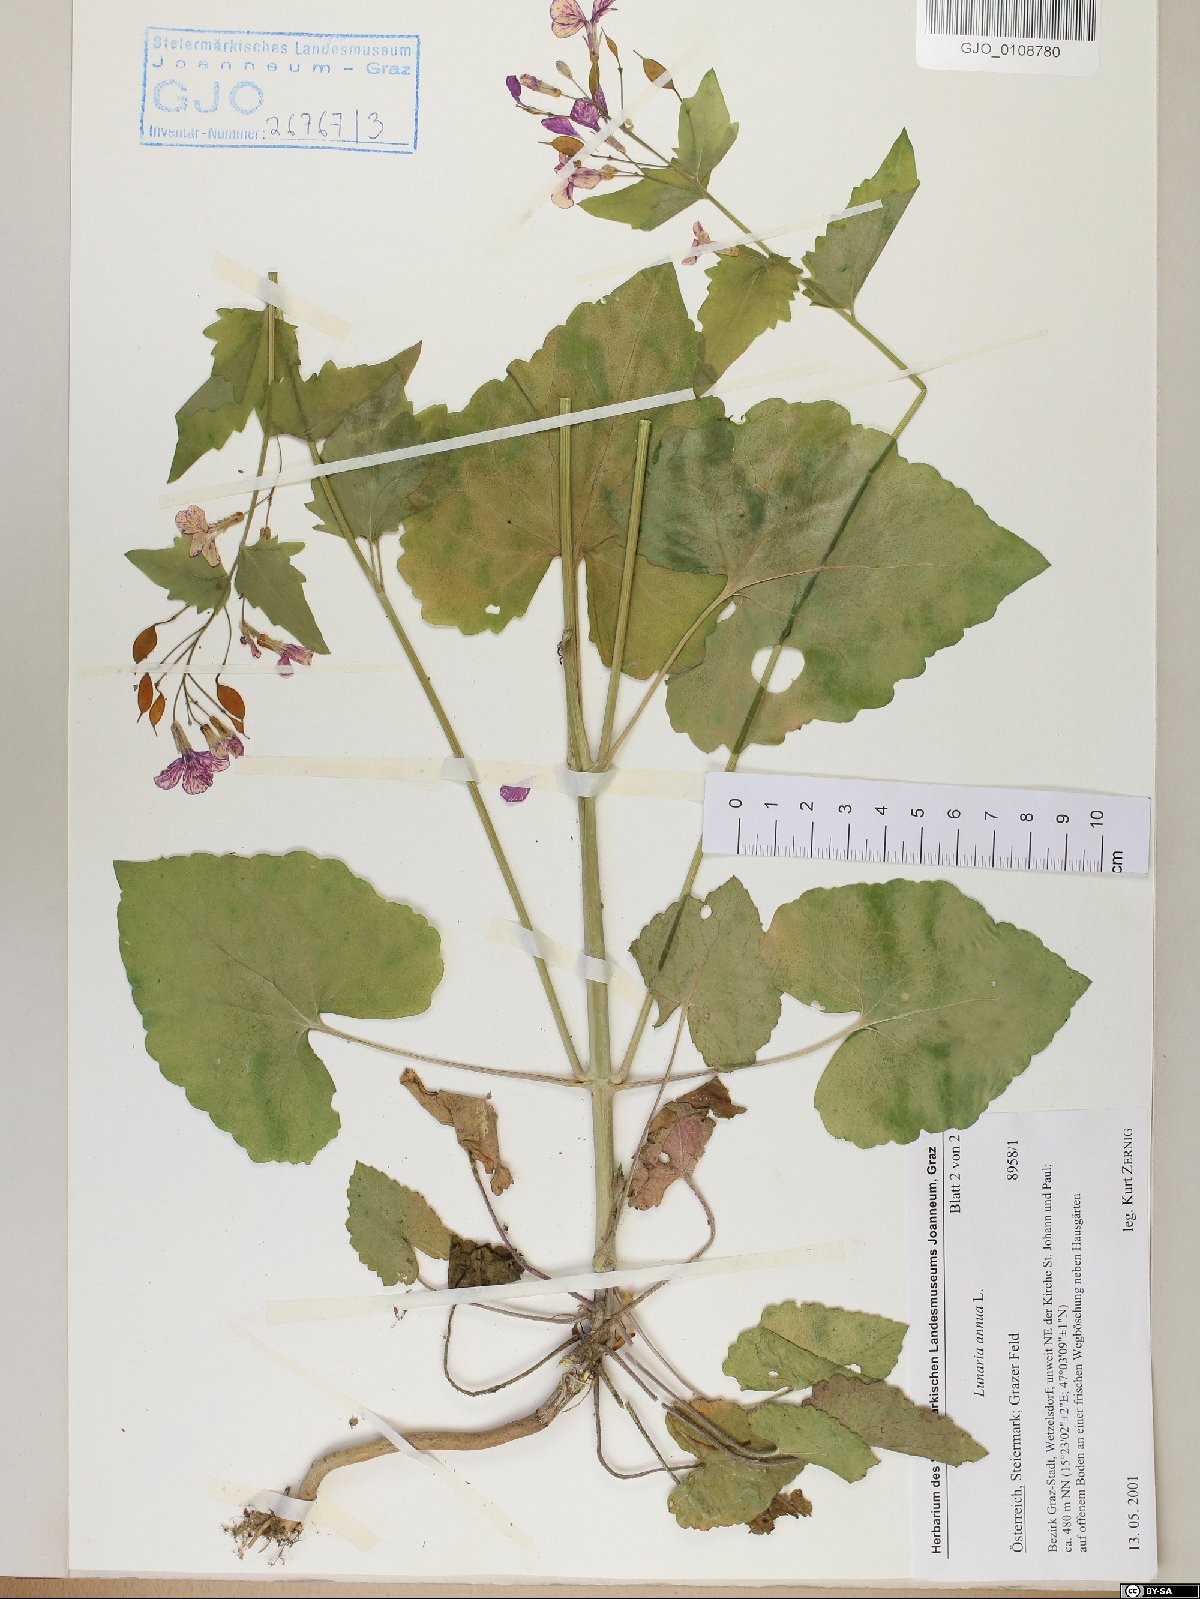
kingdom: Plantae
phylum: Tracheophyta
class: Magnoliopsida
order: Brassicales
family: Brassicaceae
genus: Lunaria
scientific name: Lunaria annua
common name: Honesty
